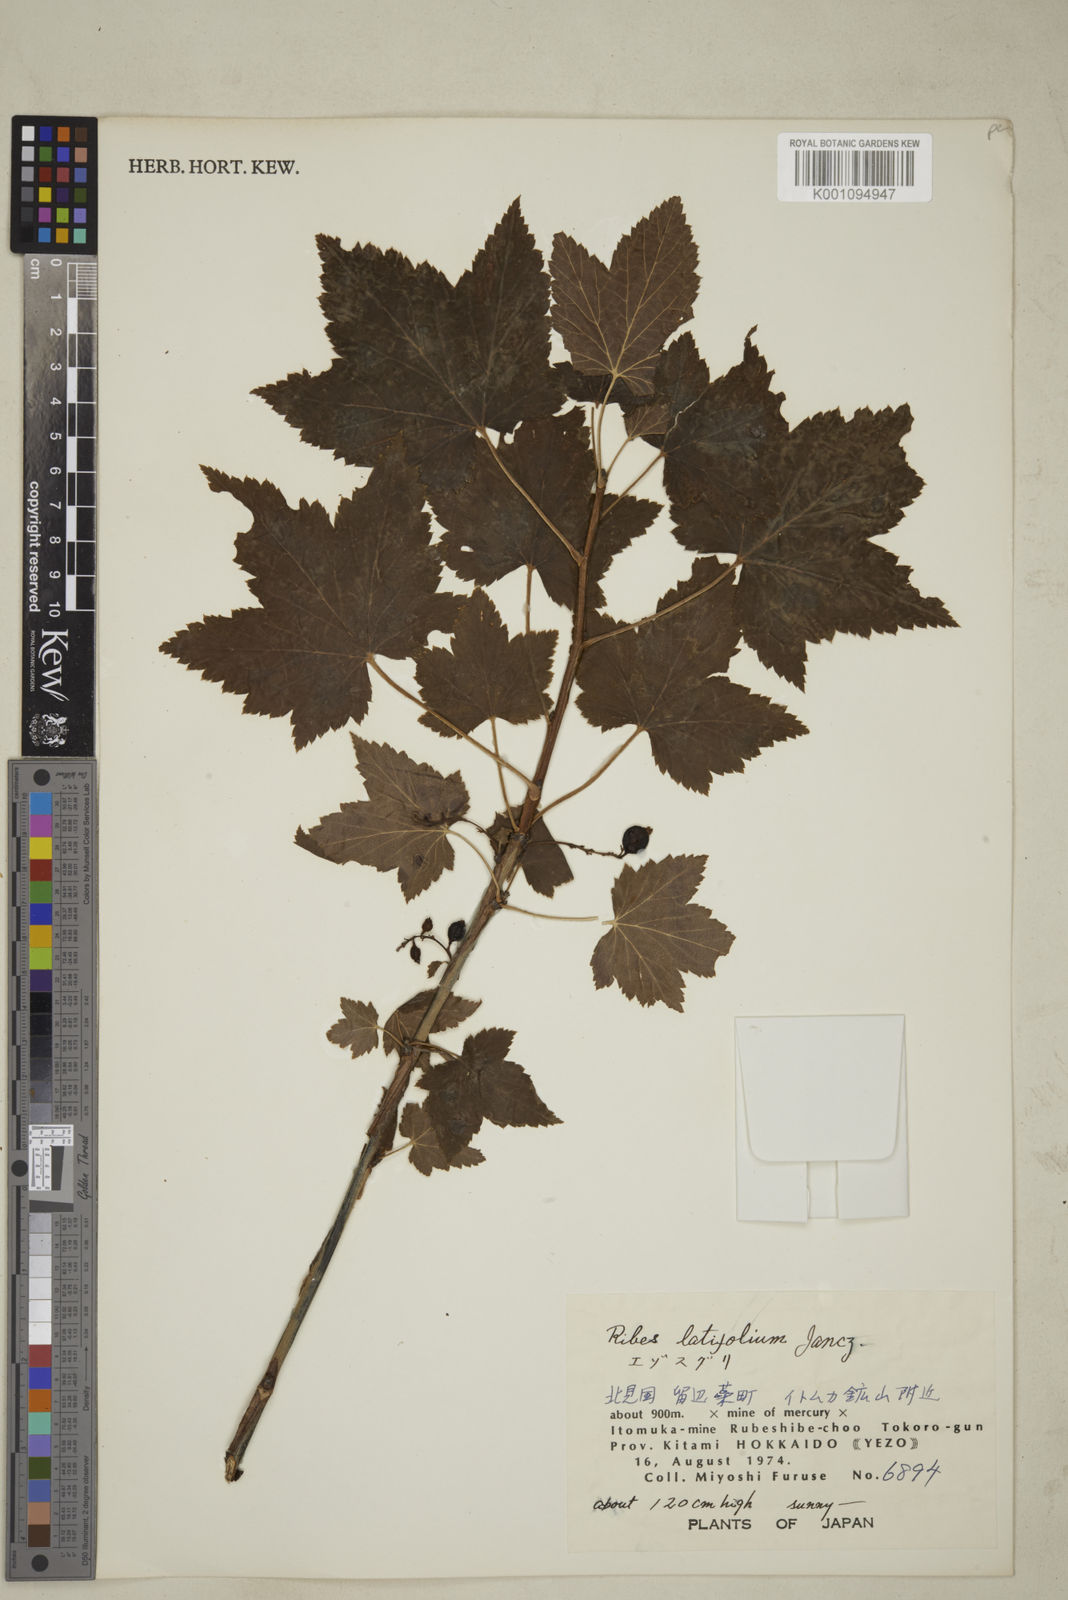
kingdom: Plantae
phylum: Tracheophyta
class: Magnoliopsida
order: Saxifragales
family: Grossulariaceae
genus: Ribes
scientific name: Ribes latifolium
